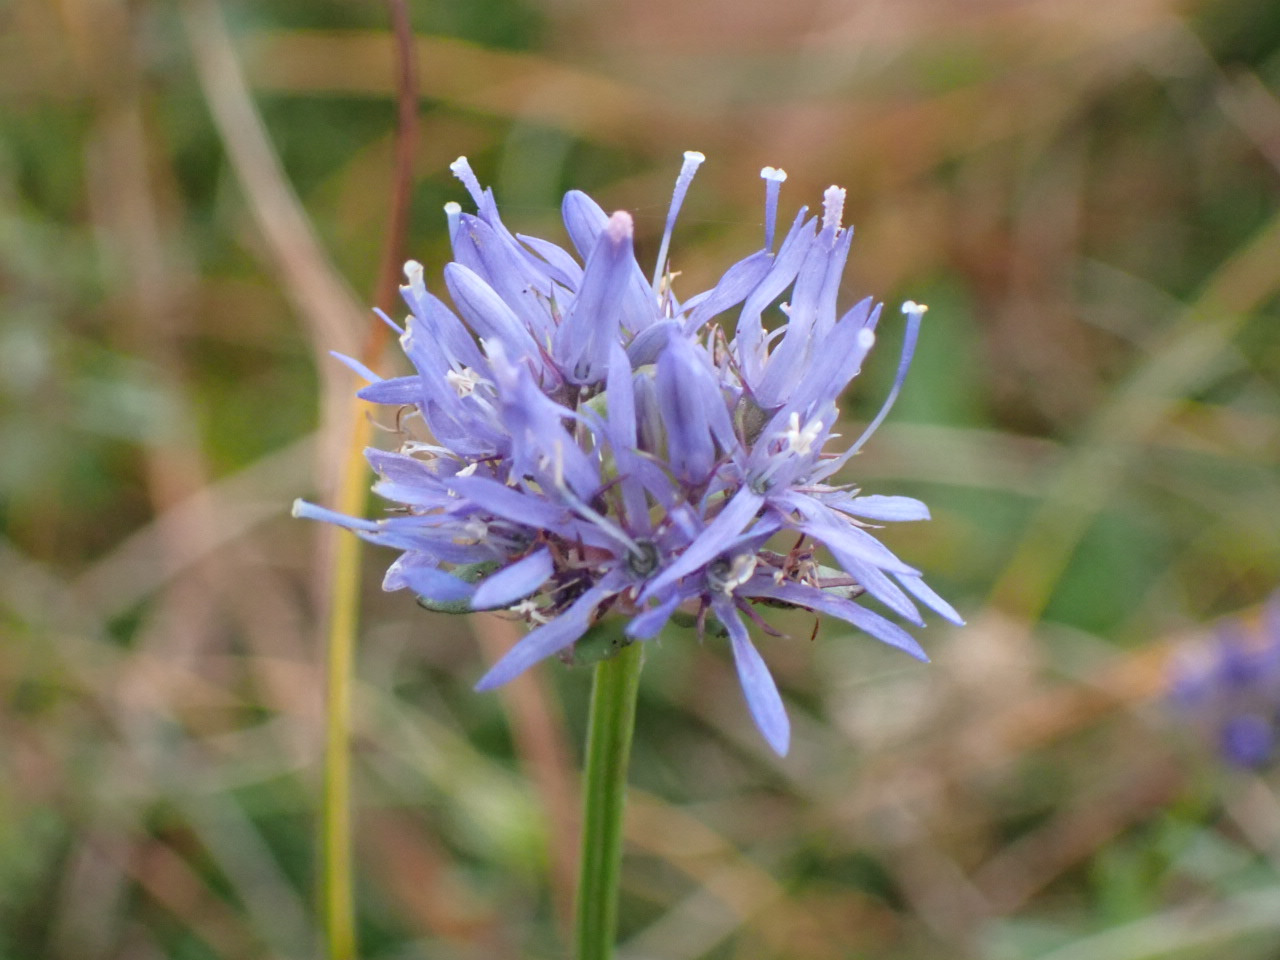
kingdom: Plantae
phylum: Tracheophyta
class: Magnoliopsida
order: Asterales
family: Campanulaceae
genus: Jasione
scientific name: Jasione montana
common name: Blåmunke
